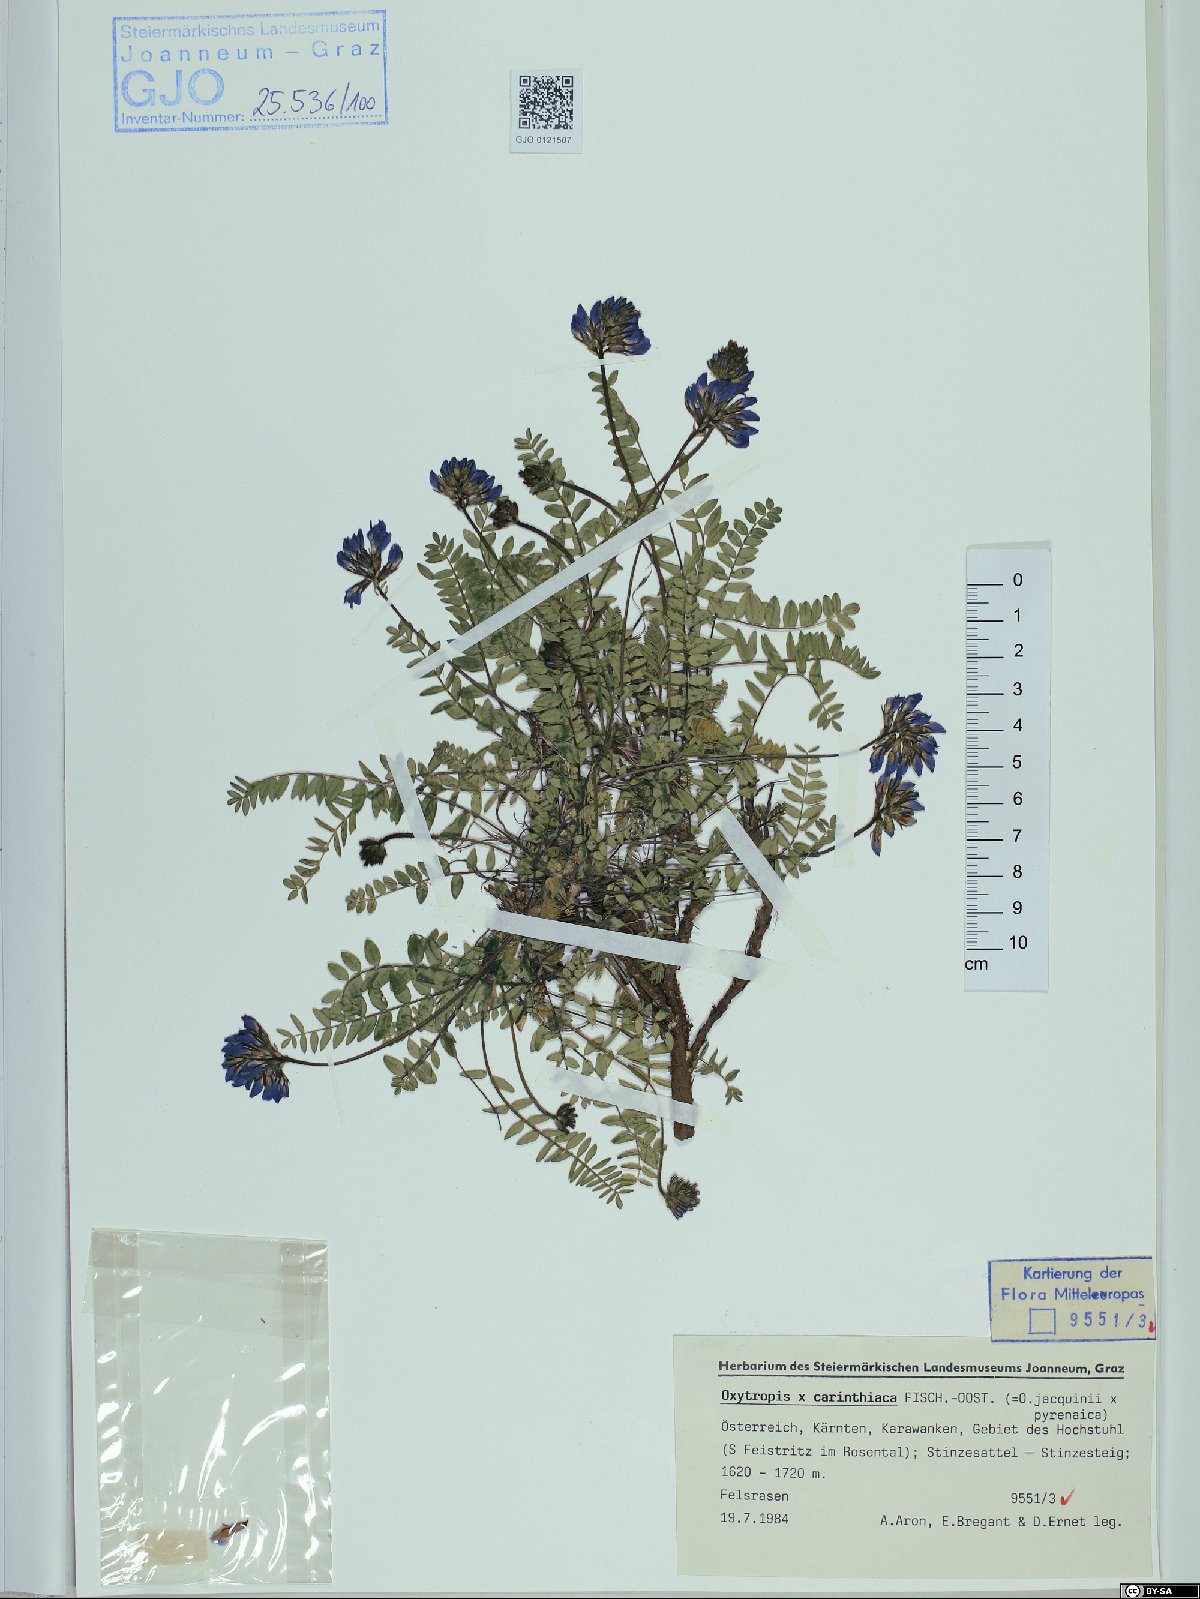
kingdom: Plantae
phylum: Tracheophyta
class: Magnoliopsida
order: Fabales
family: Fabaceae
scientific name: Fabaceae
